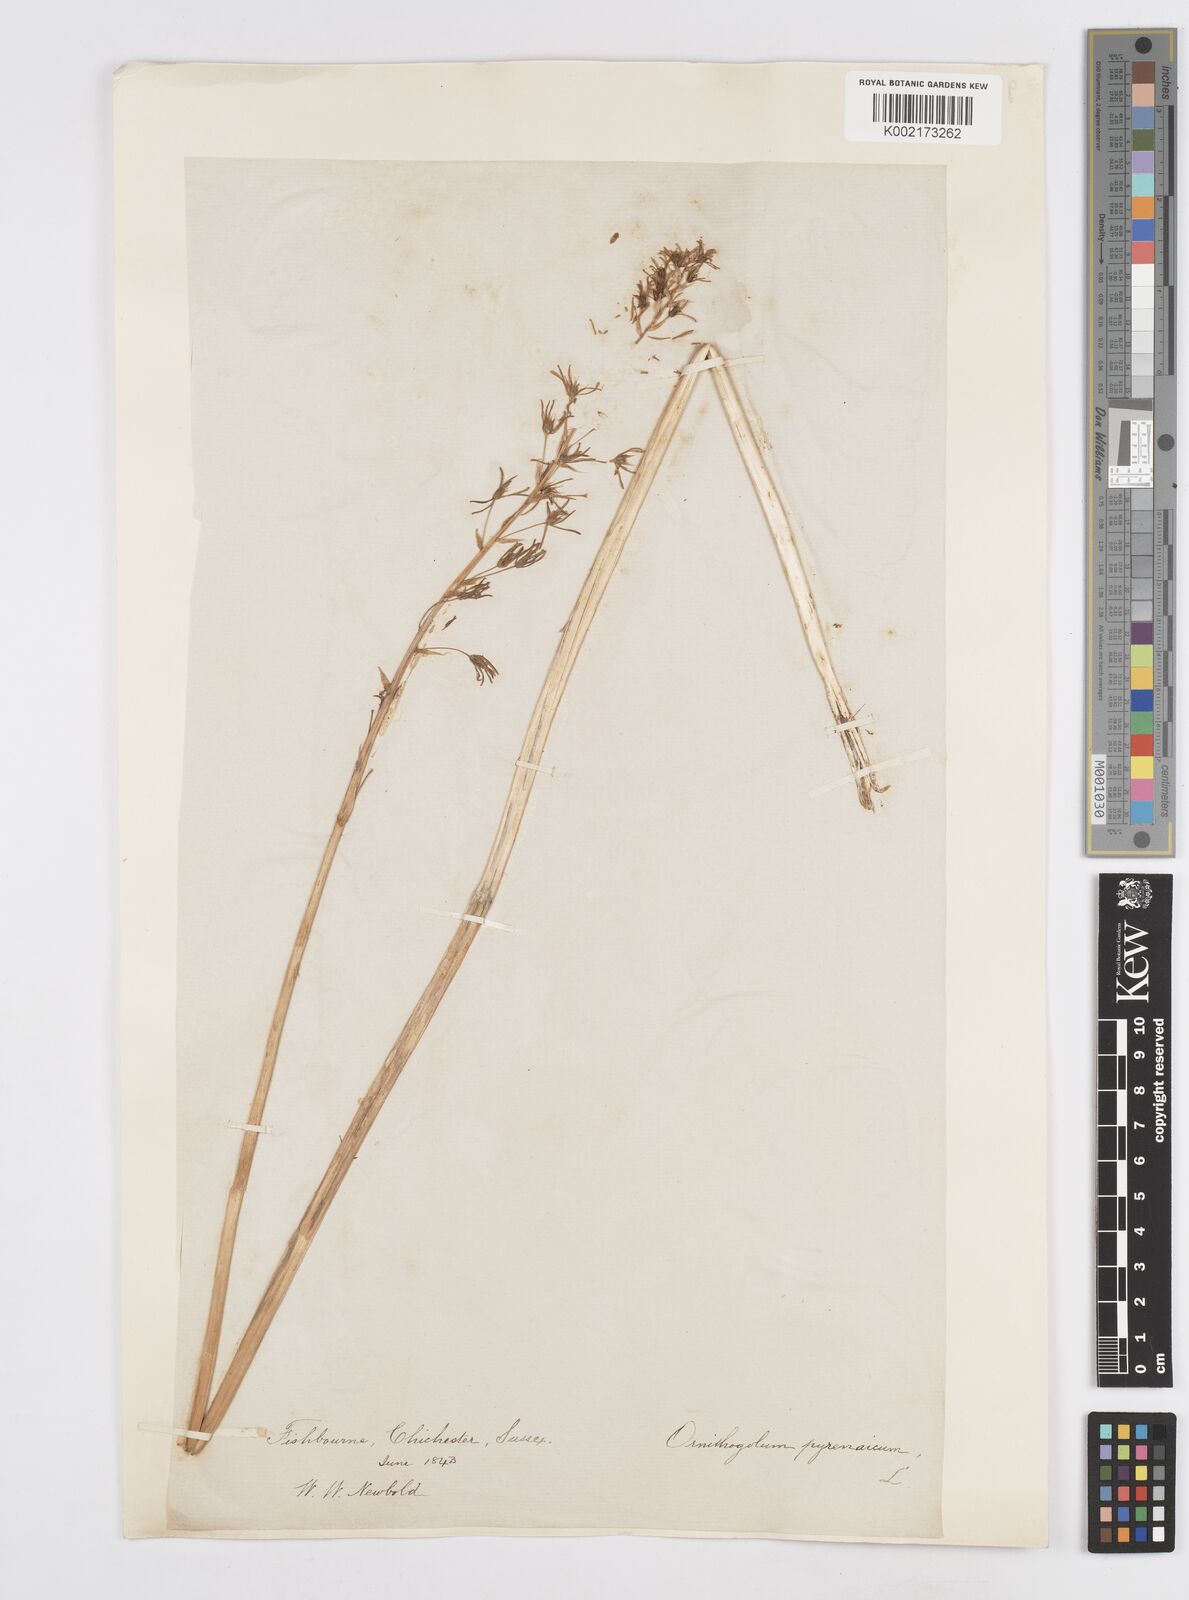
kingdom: Plantae
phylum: Tracheophyta
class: Liliopsida
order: Asparagales
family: Asparagaceae
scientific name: Asparagaceae
